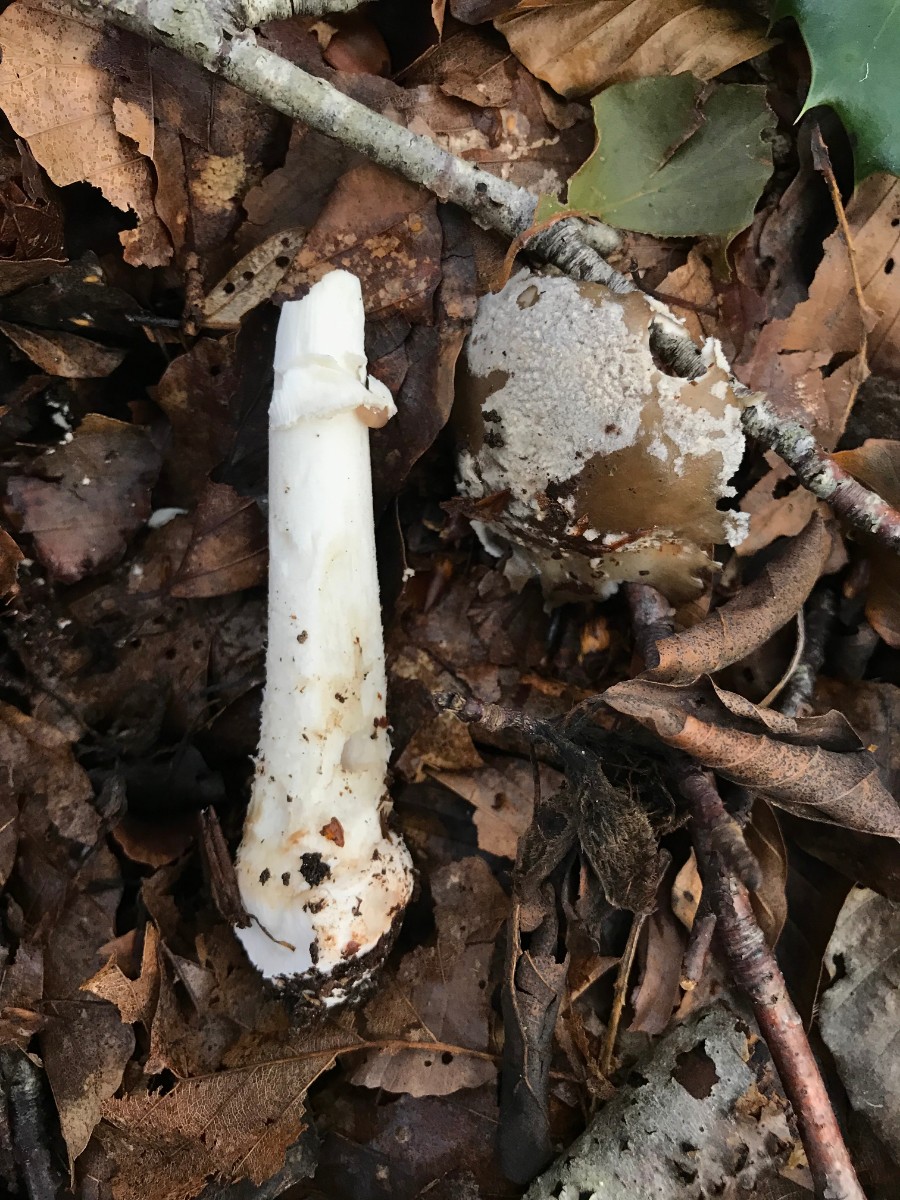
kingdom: Fungi
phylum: Basidiomycota
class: Agaricomycetes
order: Agaricales
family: Amanitaceae
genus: Amanita
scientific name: Amanita
